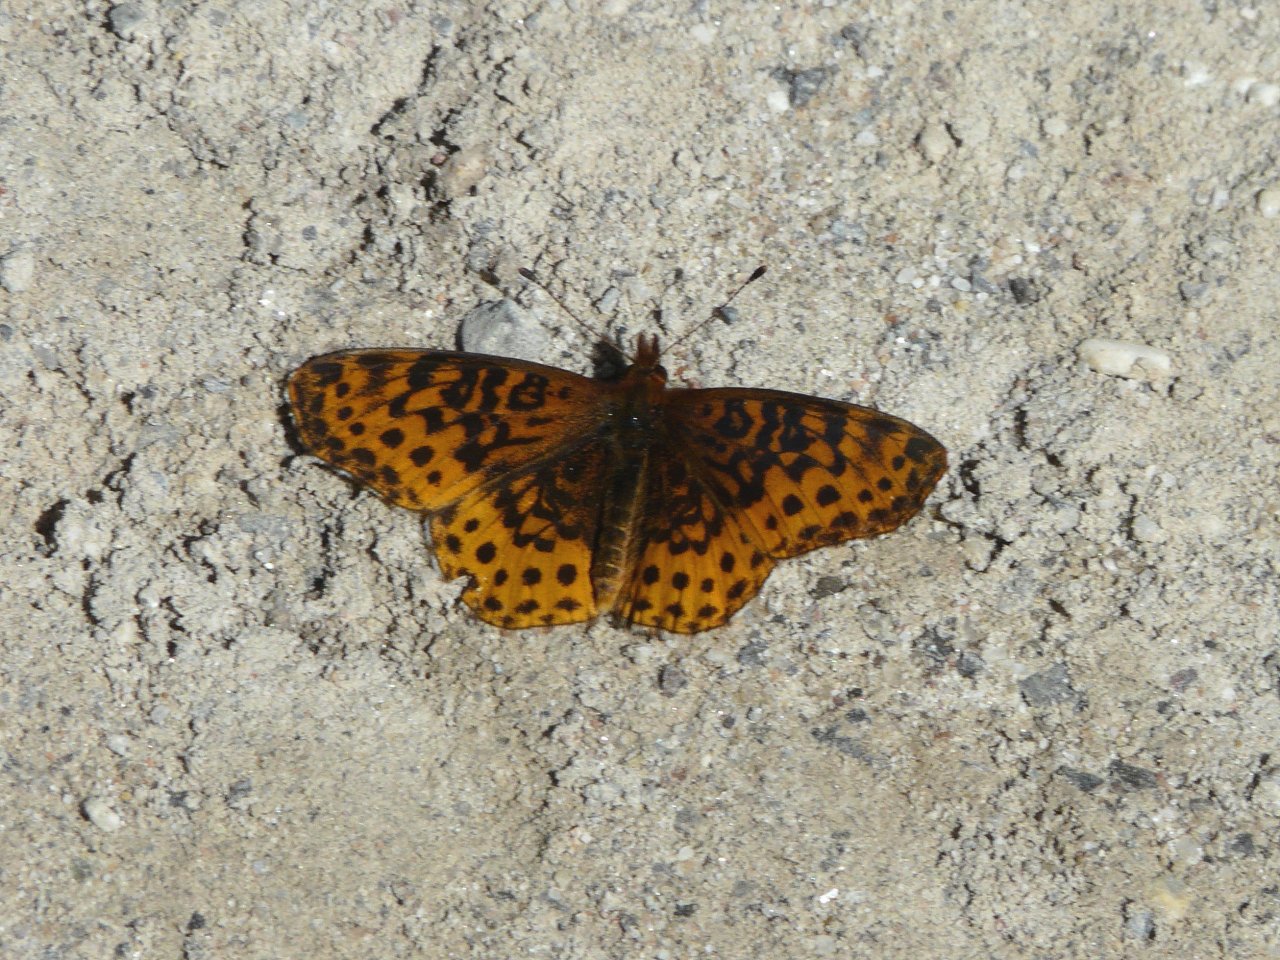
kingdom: Animalia
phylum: Arthropoda
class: Insecta
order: Lepidoptera
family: Nymphalidae
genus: Clossiana
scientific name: Clossiana toddi
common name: Meadow Fritillary
